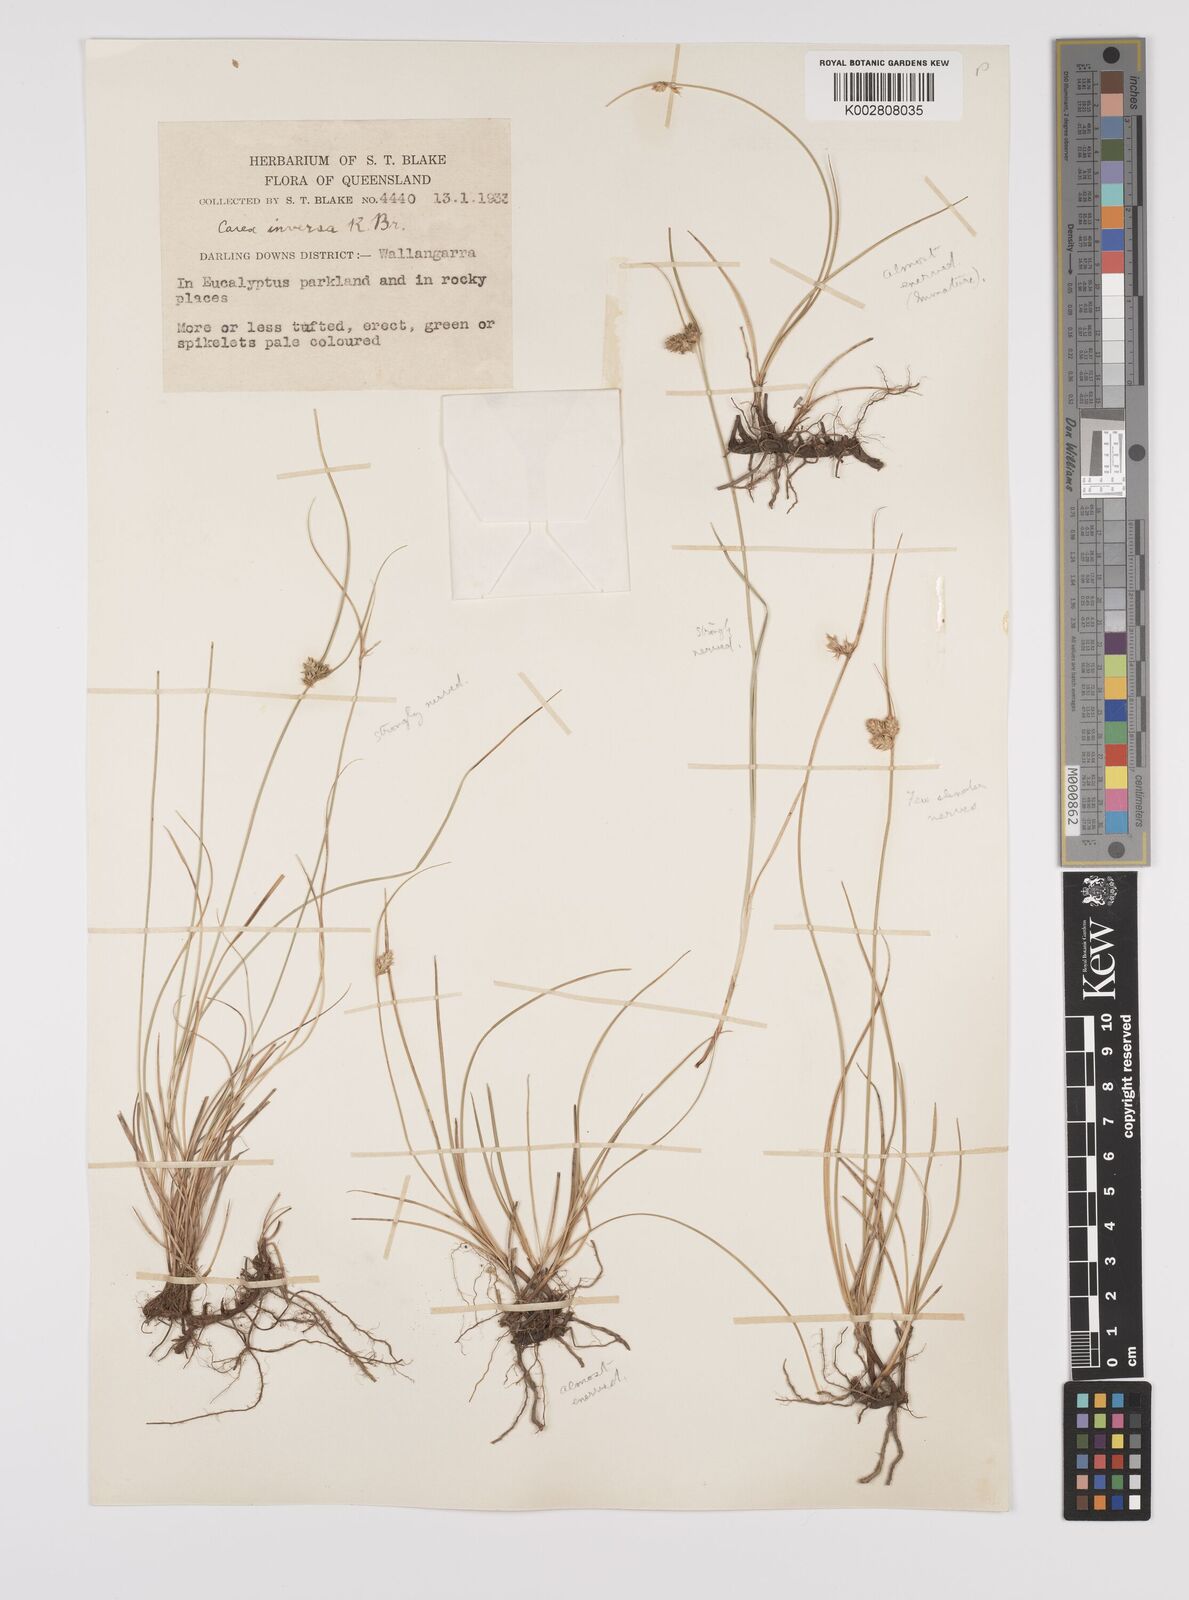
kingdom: Plantae
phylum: Tracheophyta
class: Liliopsida
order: Poales
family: Cyperaceae
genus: Carex
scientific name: Carex inversa
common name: Knob sedge
